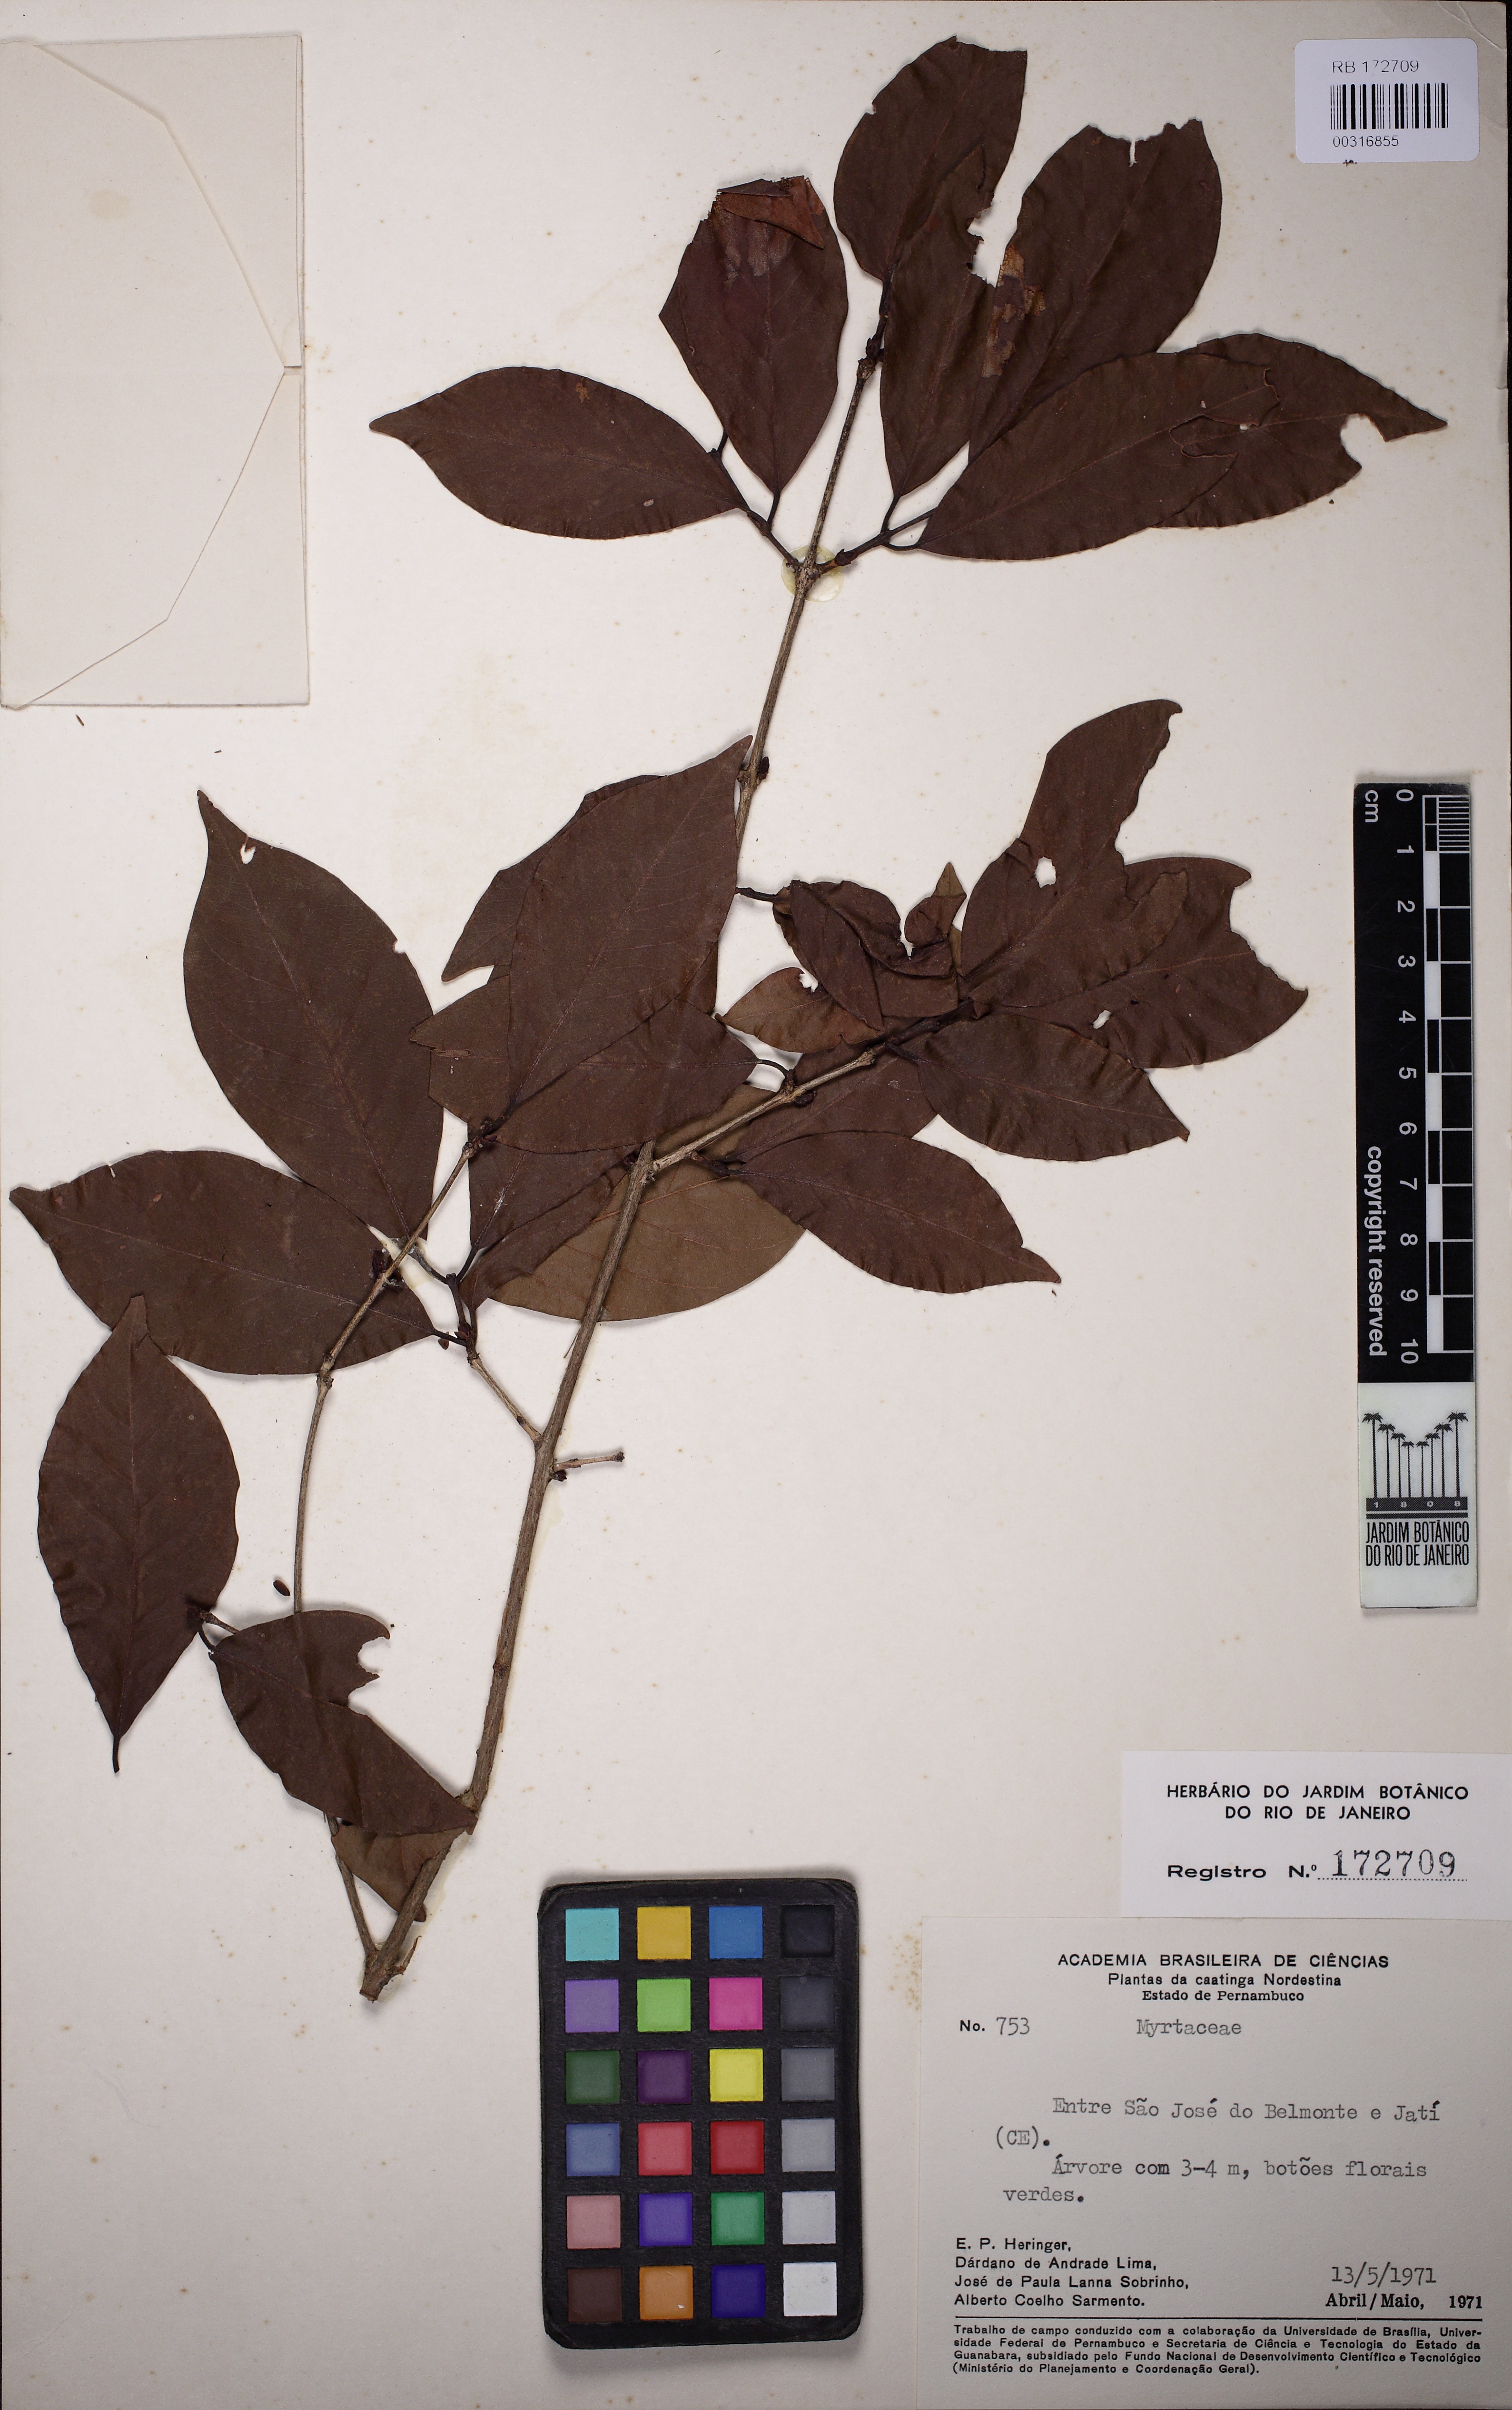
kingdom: Plantae
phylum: Tracheophyta
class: Magnoliopsida
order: Myrtales
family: Myrtaceae
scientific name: Myrtaceae
